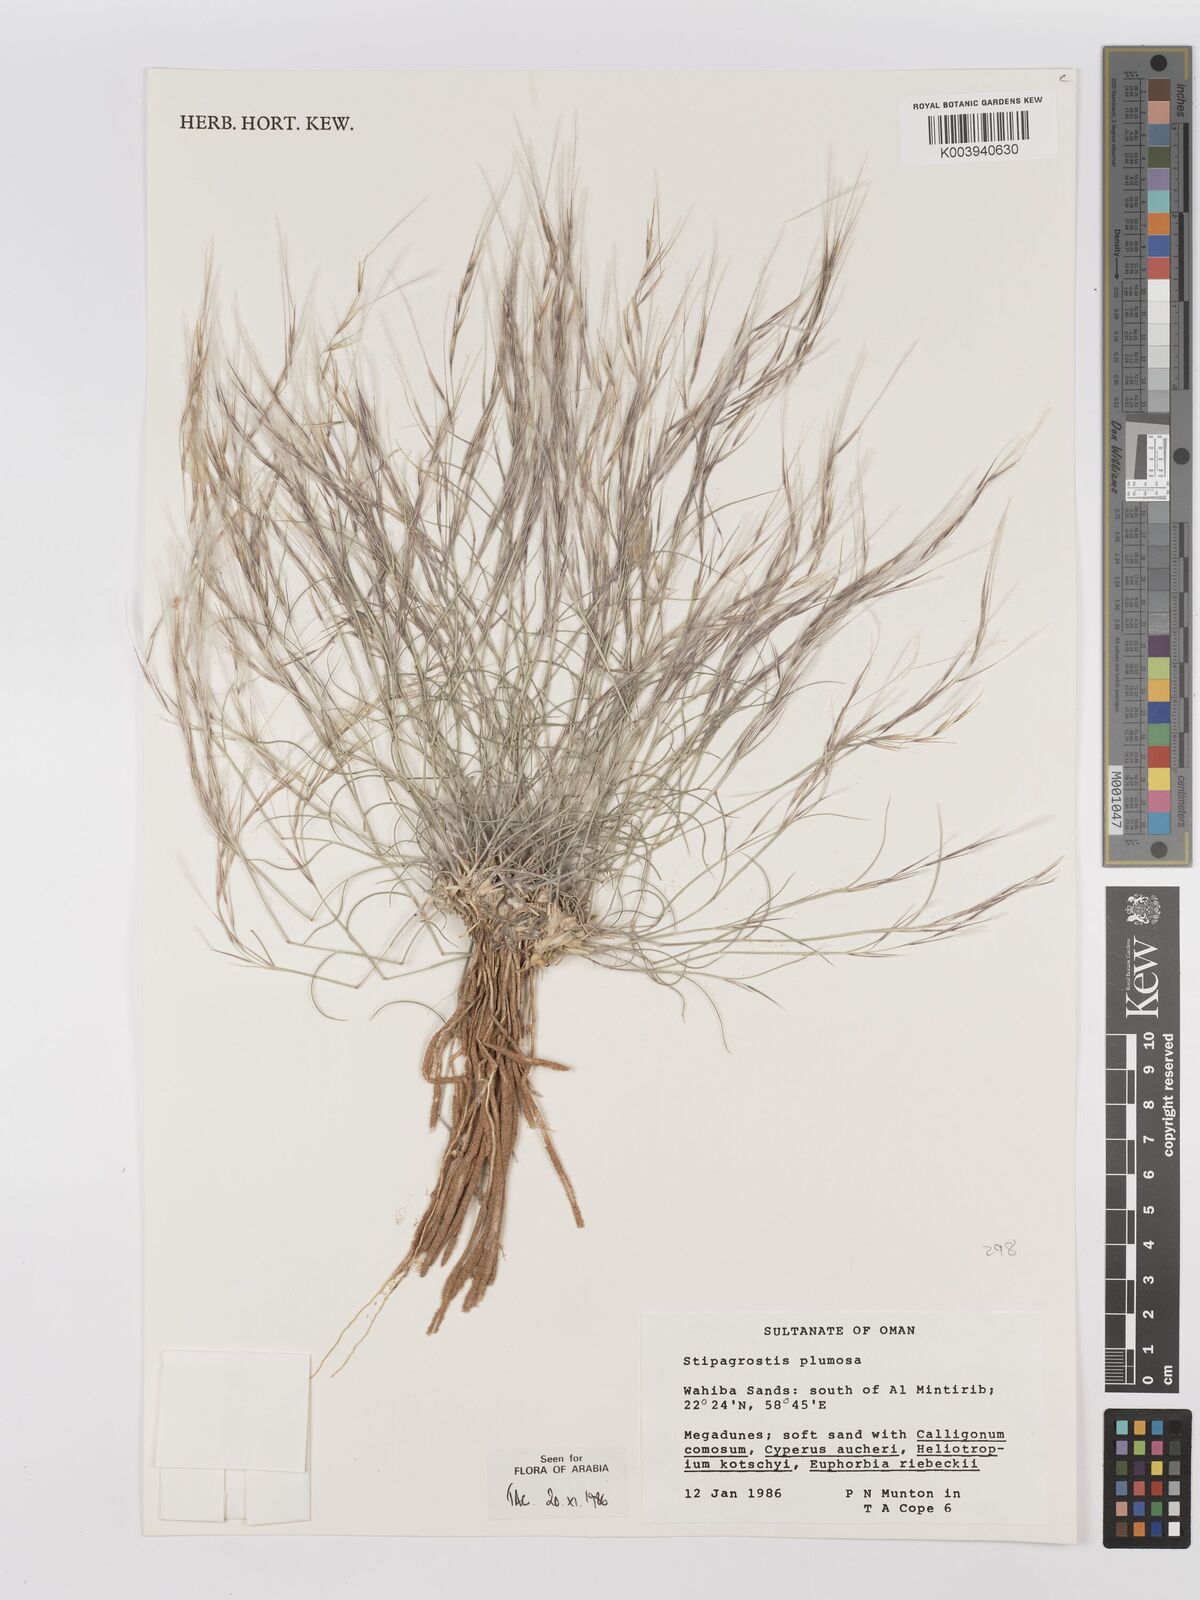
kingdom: Plantae
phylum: Tracheophyta
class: Liliopsida
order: Poales
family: Poaceae
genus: Stipagrostis
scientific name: Stipagrostis plumosa
